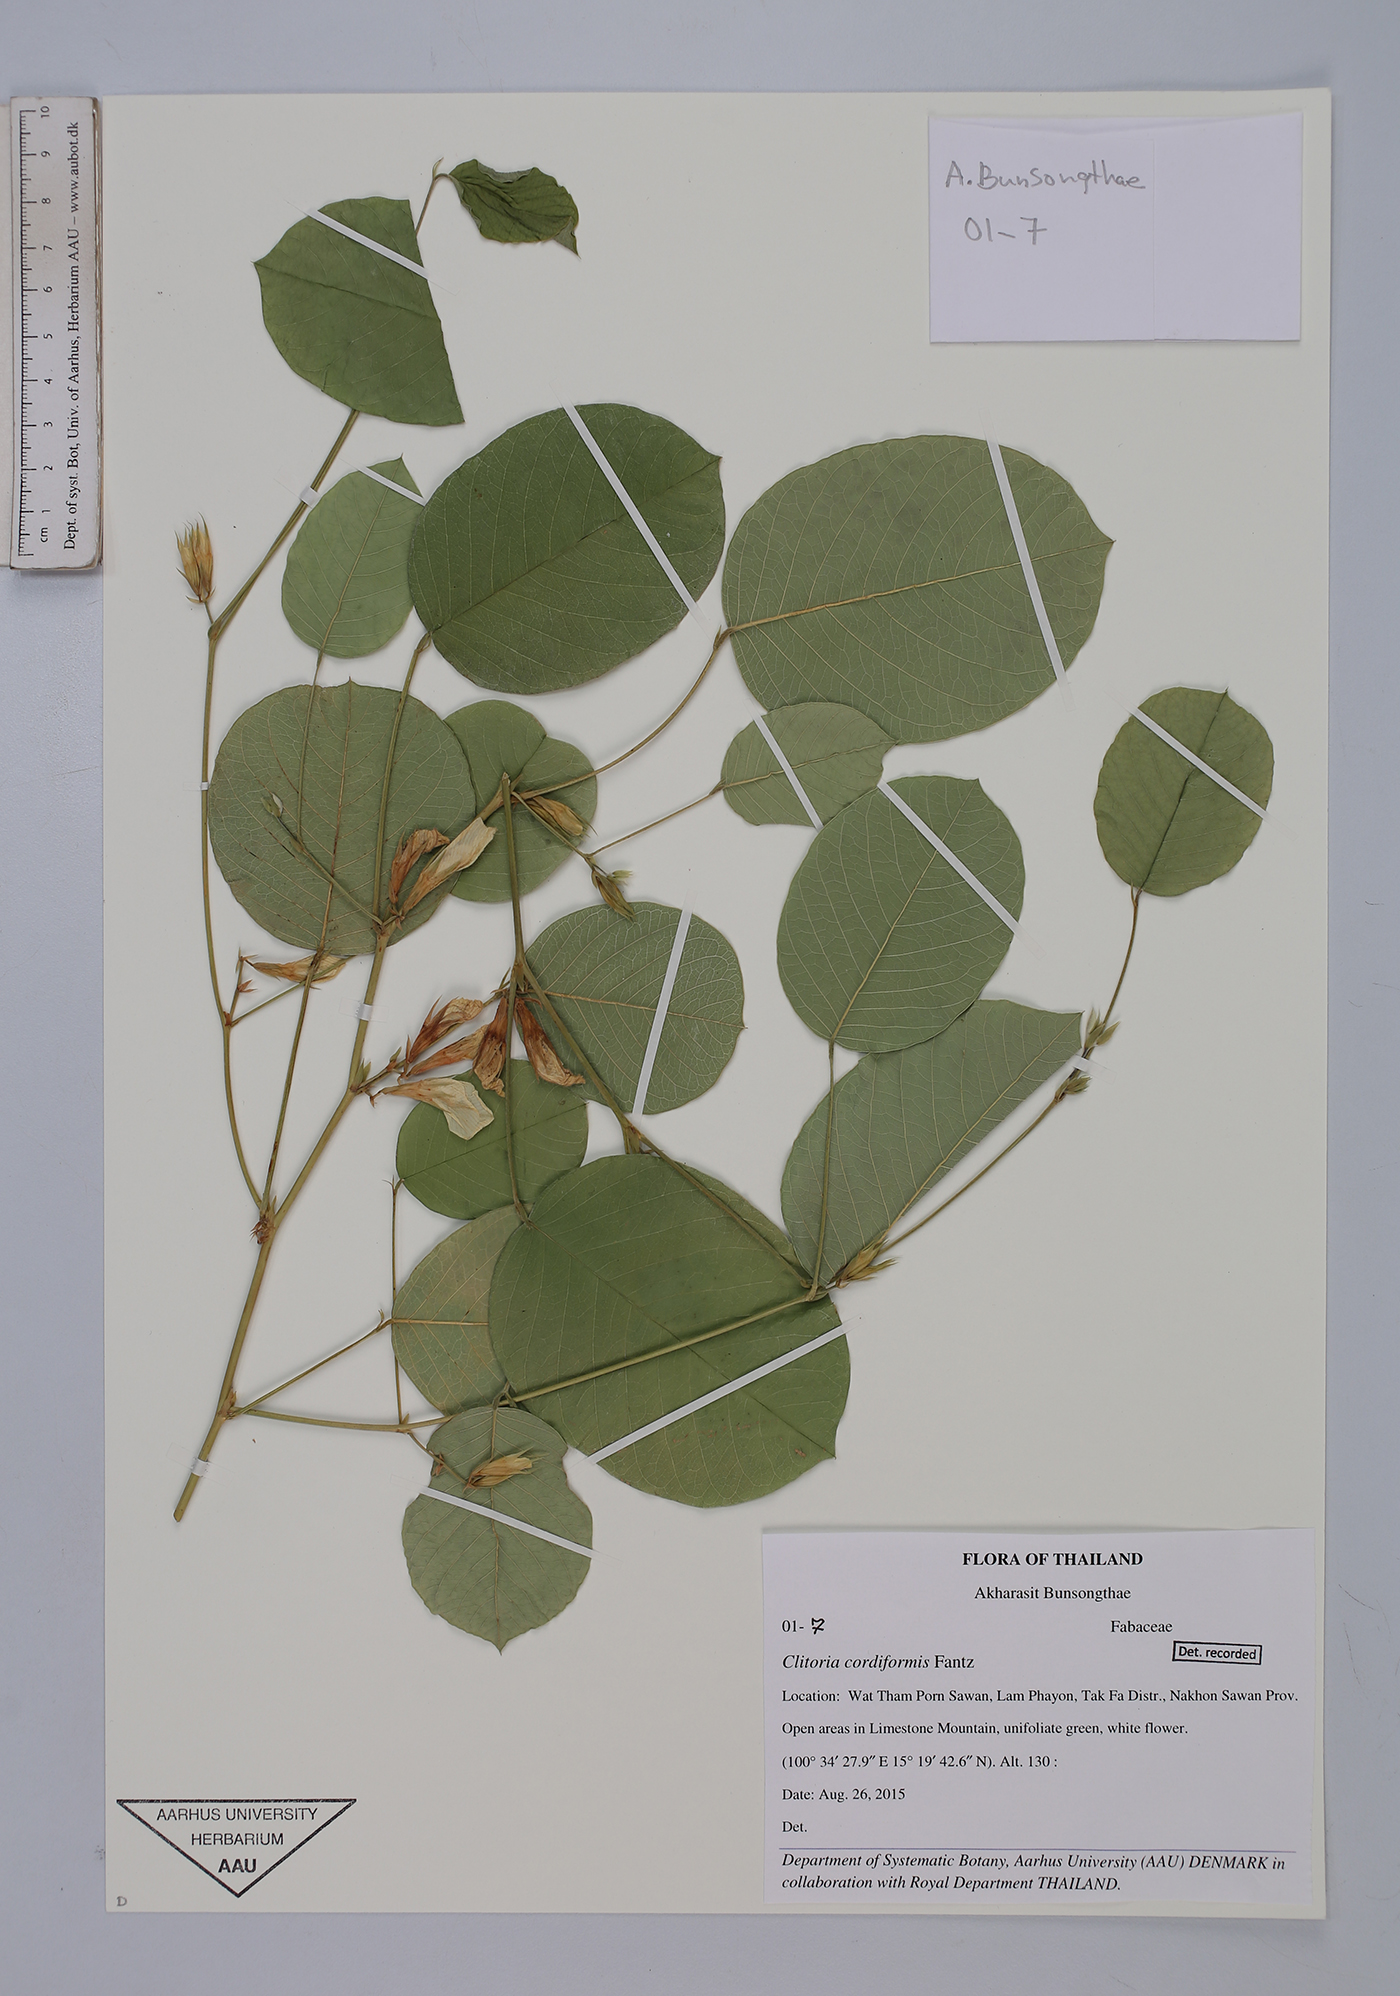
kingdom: Plantae
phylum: Tracheophyta
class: Magnoliopsida
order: Fabales
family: Fabaceae
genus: Clitoria
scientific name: Clitoria cordiformis
